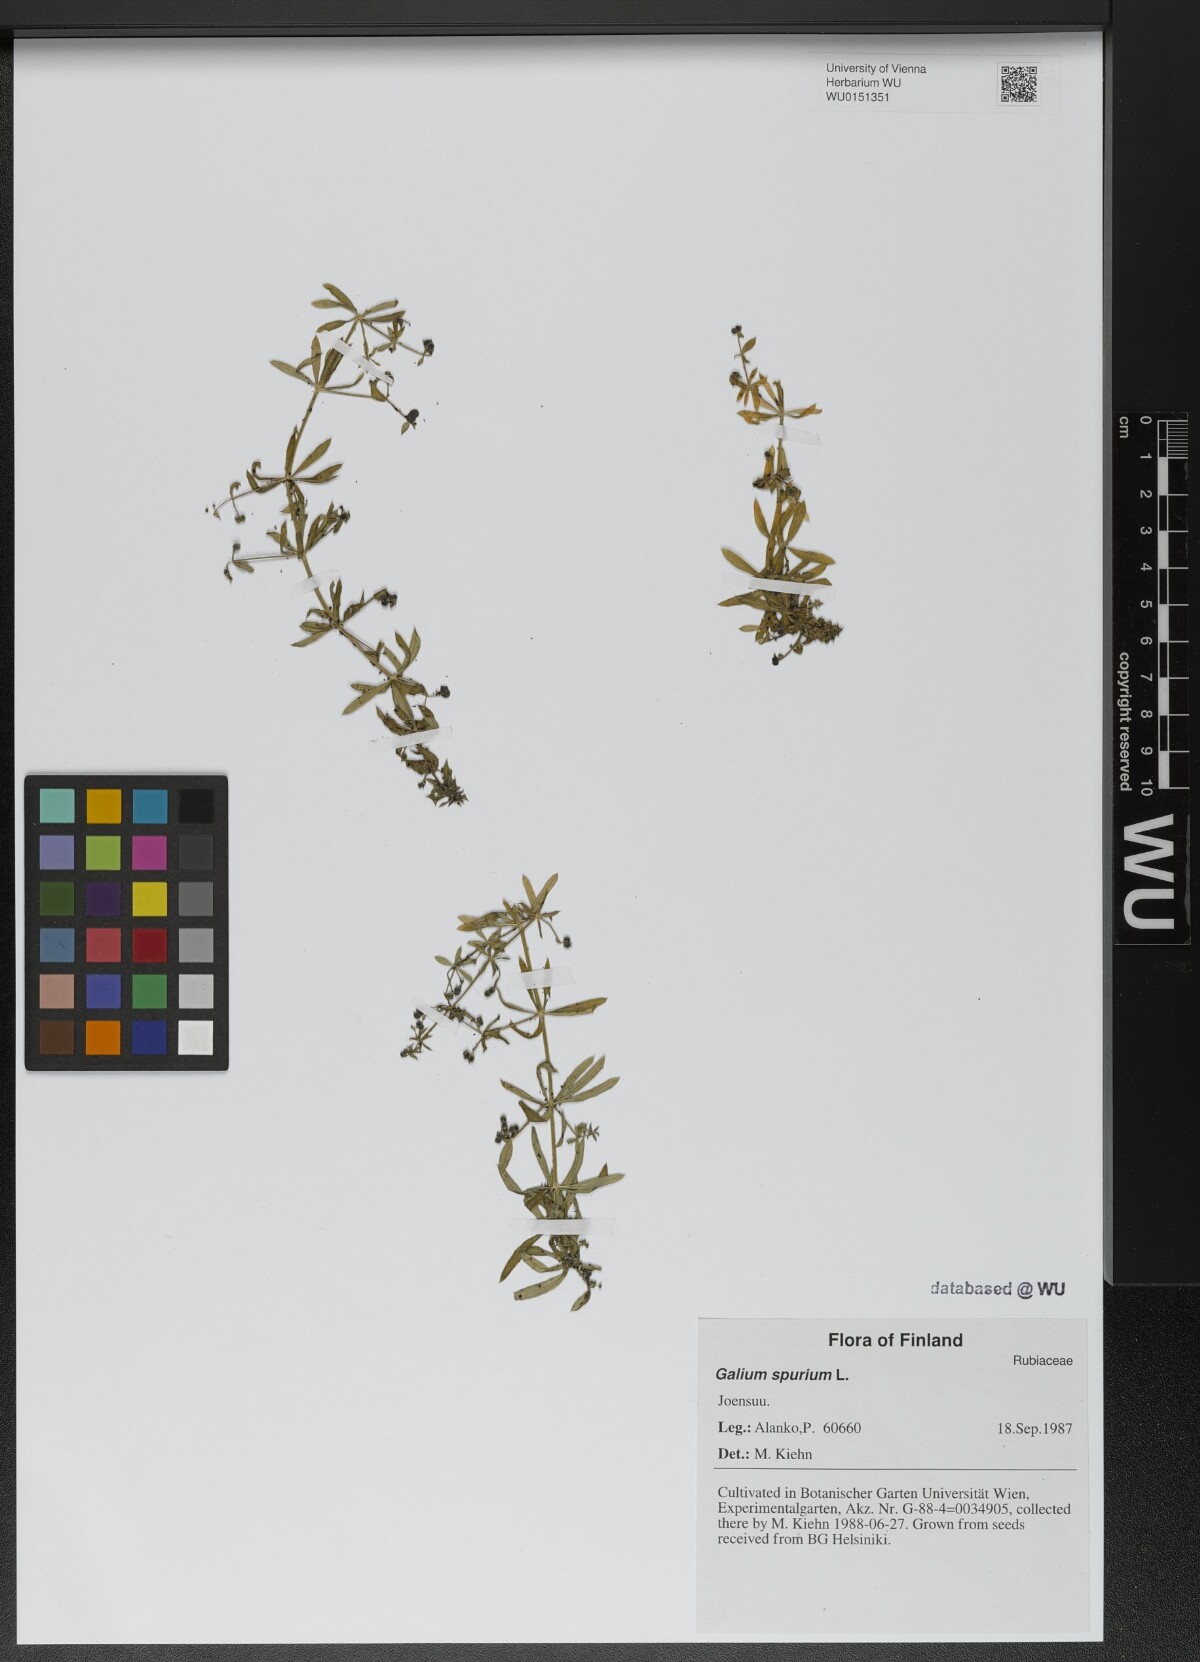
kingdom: Plantae
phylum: Tracheophyta
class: Magnoliopsida
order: Gentianales
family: Rubiaceae
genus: Galium
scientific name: Galium spurium
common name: False cleavers
